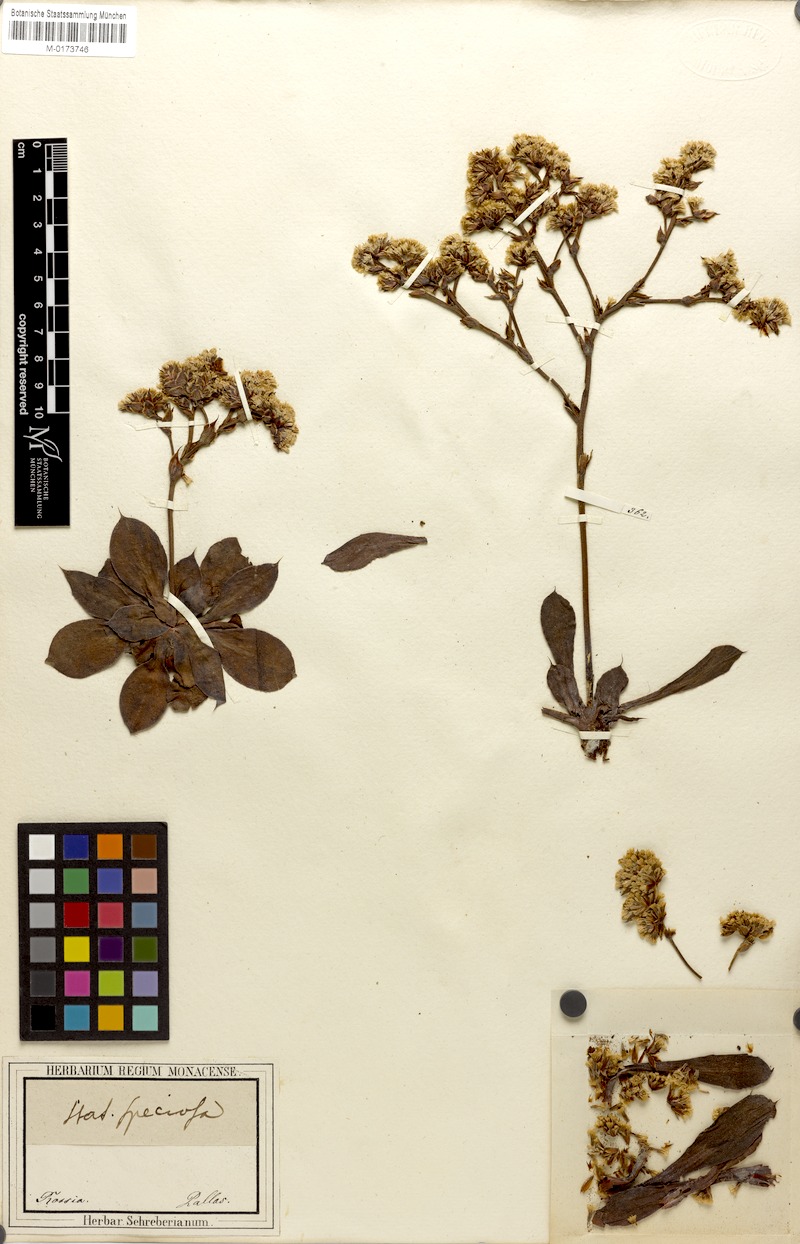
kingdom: Plantae
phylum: Tracheophyta
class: Magnoliopsida
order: Caryophyllales
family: Plumbaginaceae
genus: Goniolimon
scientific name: Goniolimon speciosum
